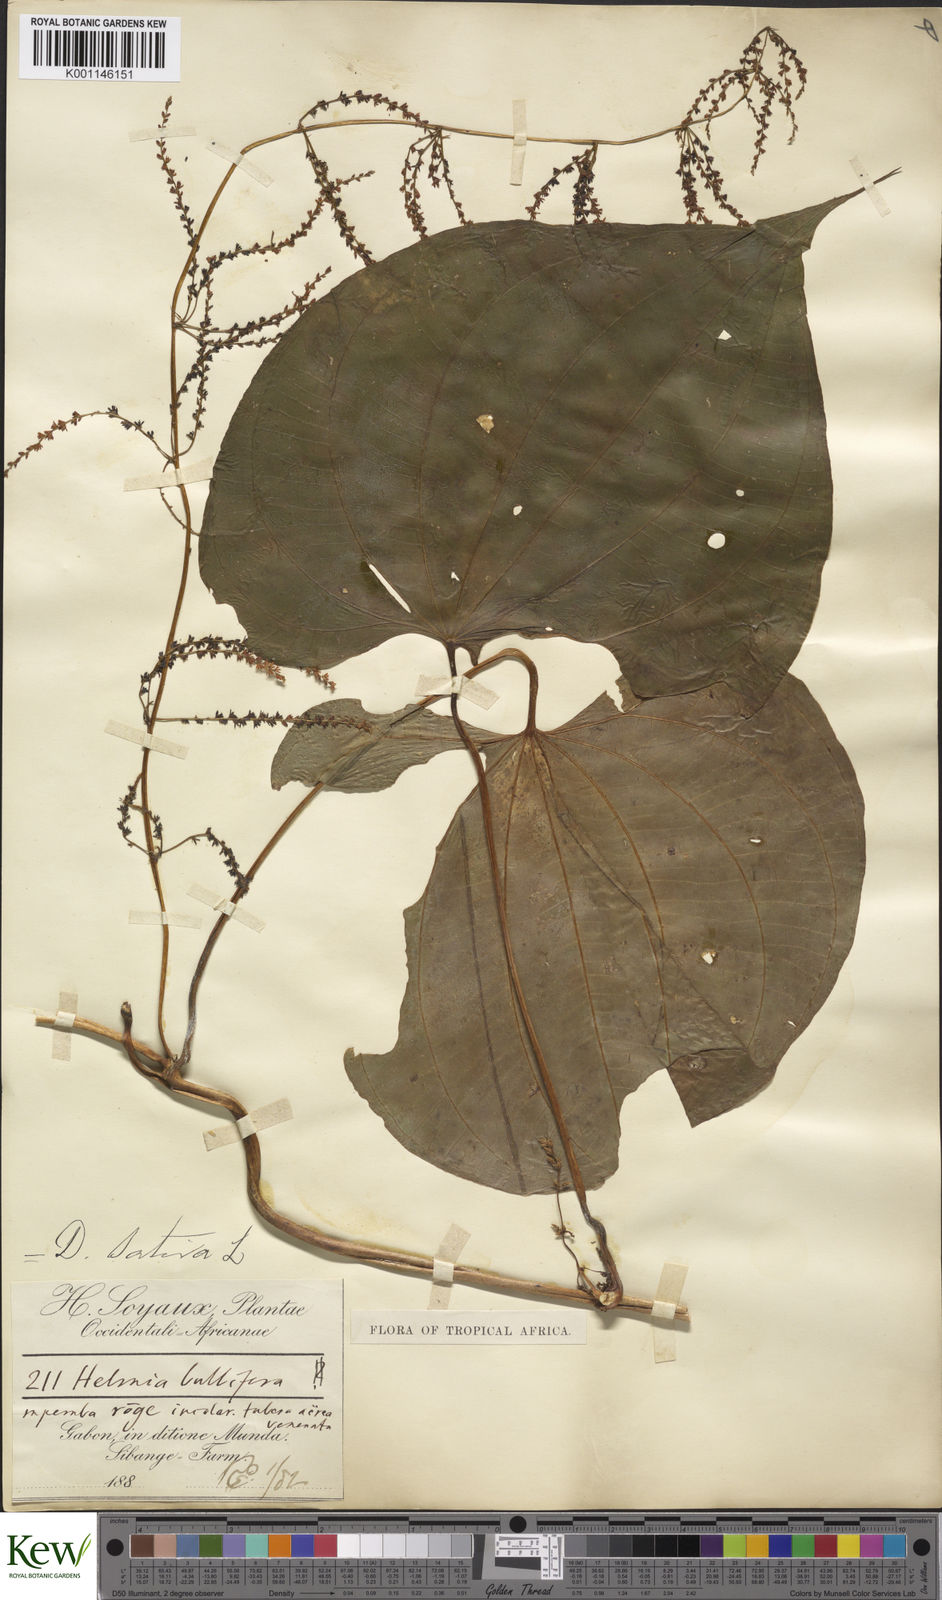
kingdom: Plantae
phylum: Tracheophyta
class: Liliopsida
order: Dioscoreales
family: Dioscoreaceae
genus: Dioscorea
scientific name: Dioscorea bulbifera
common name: Air yam
